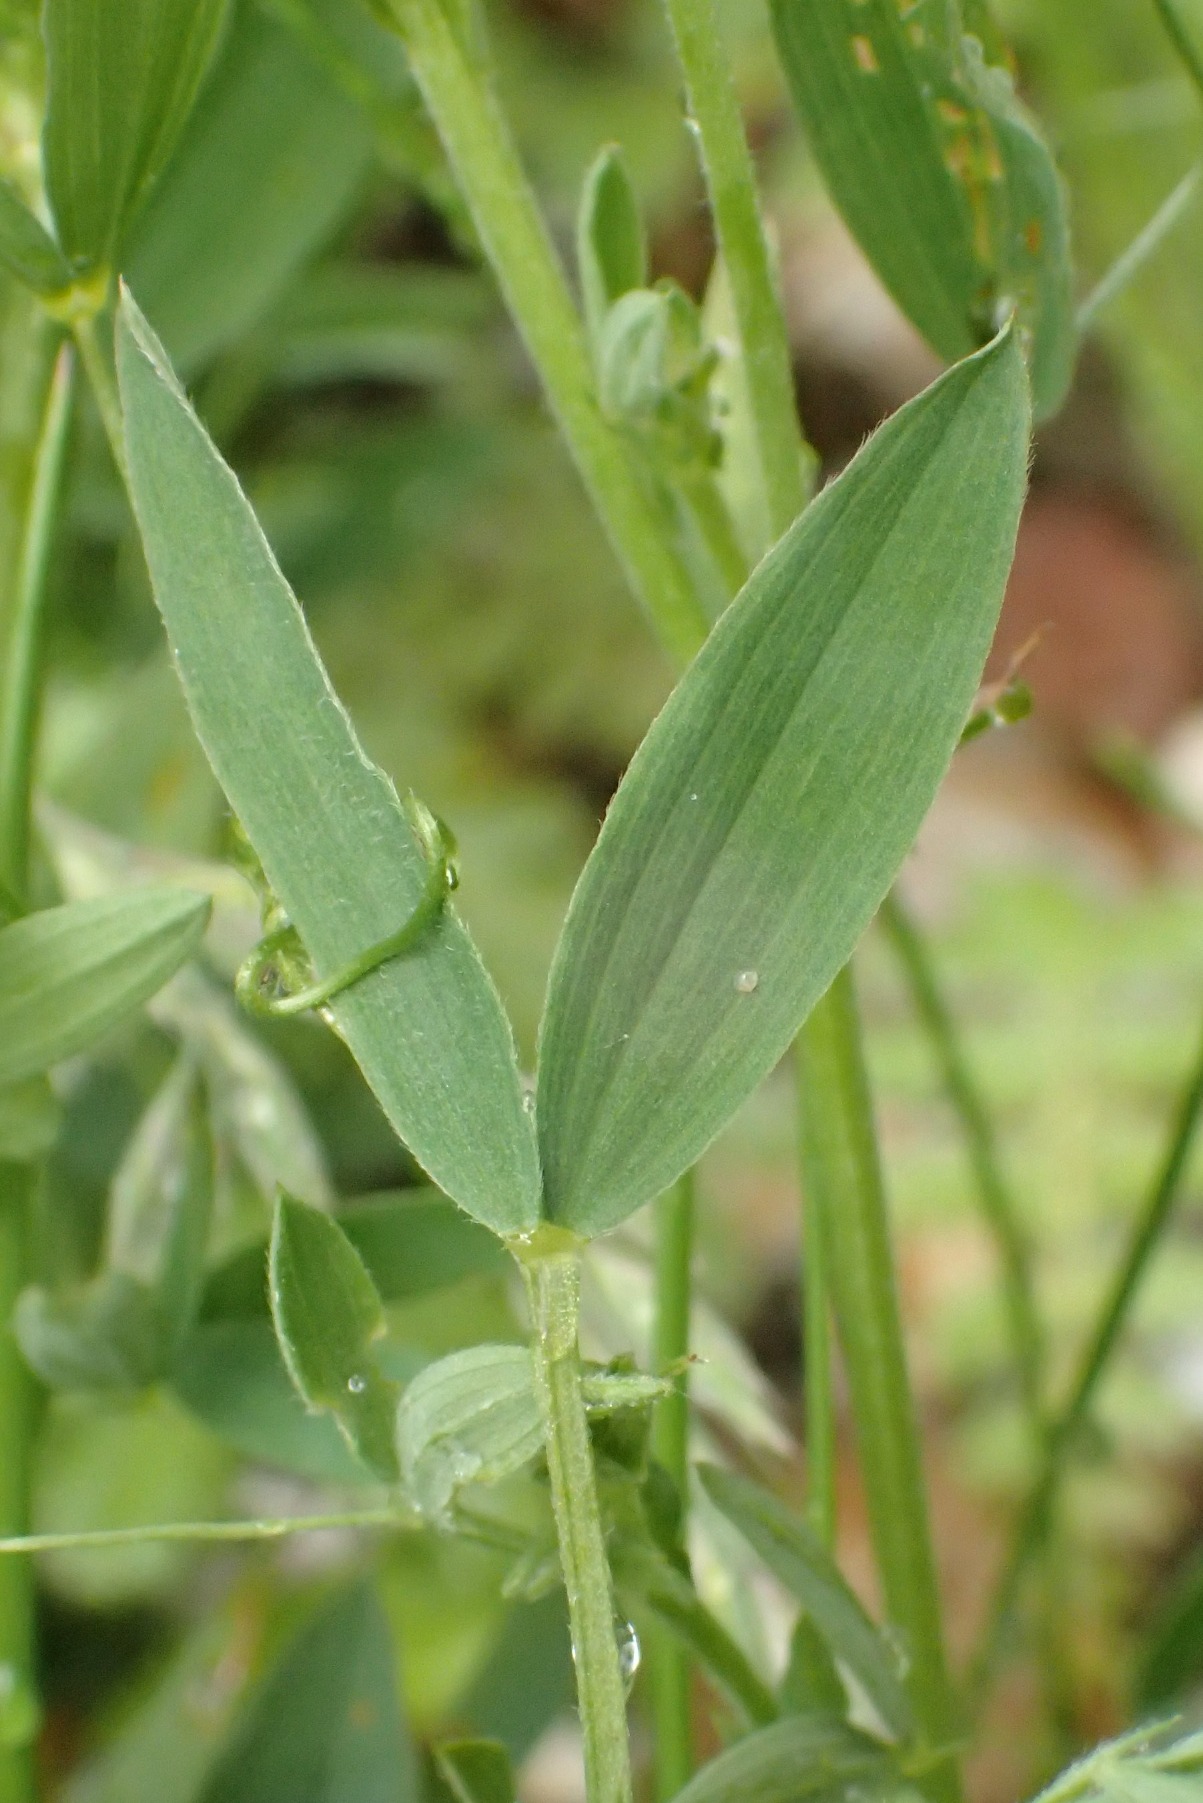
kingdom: Plantae
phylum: Tracheophyta
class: Magnoliopsida
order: Fabales
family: Fabaceae
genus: Lathyrus
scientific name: Lathyrus pratensis
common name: Gul fladbælg
